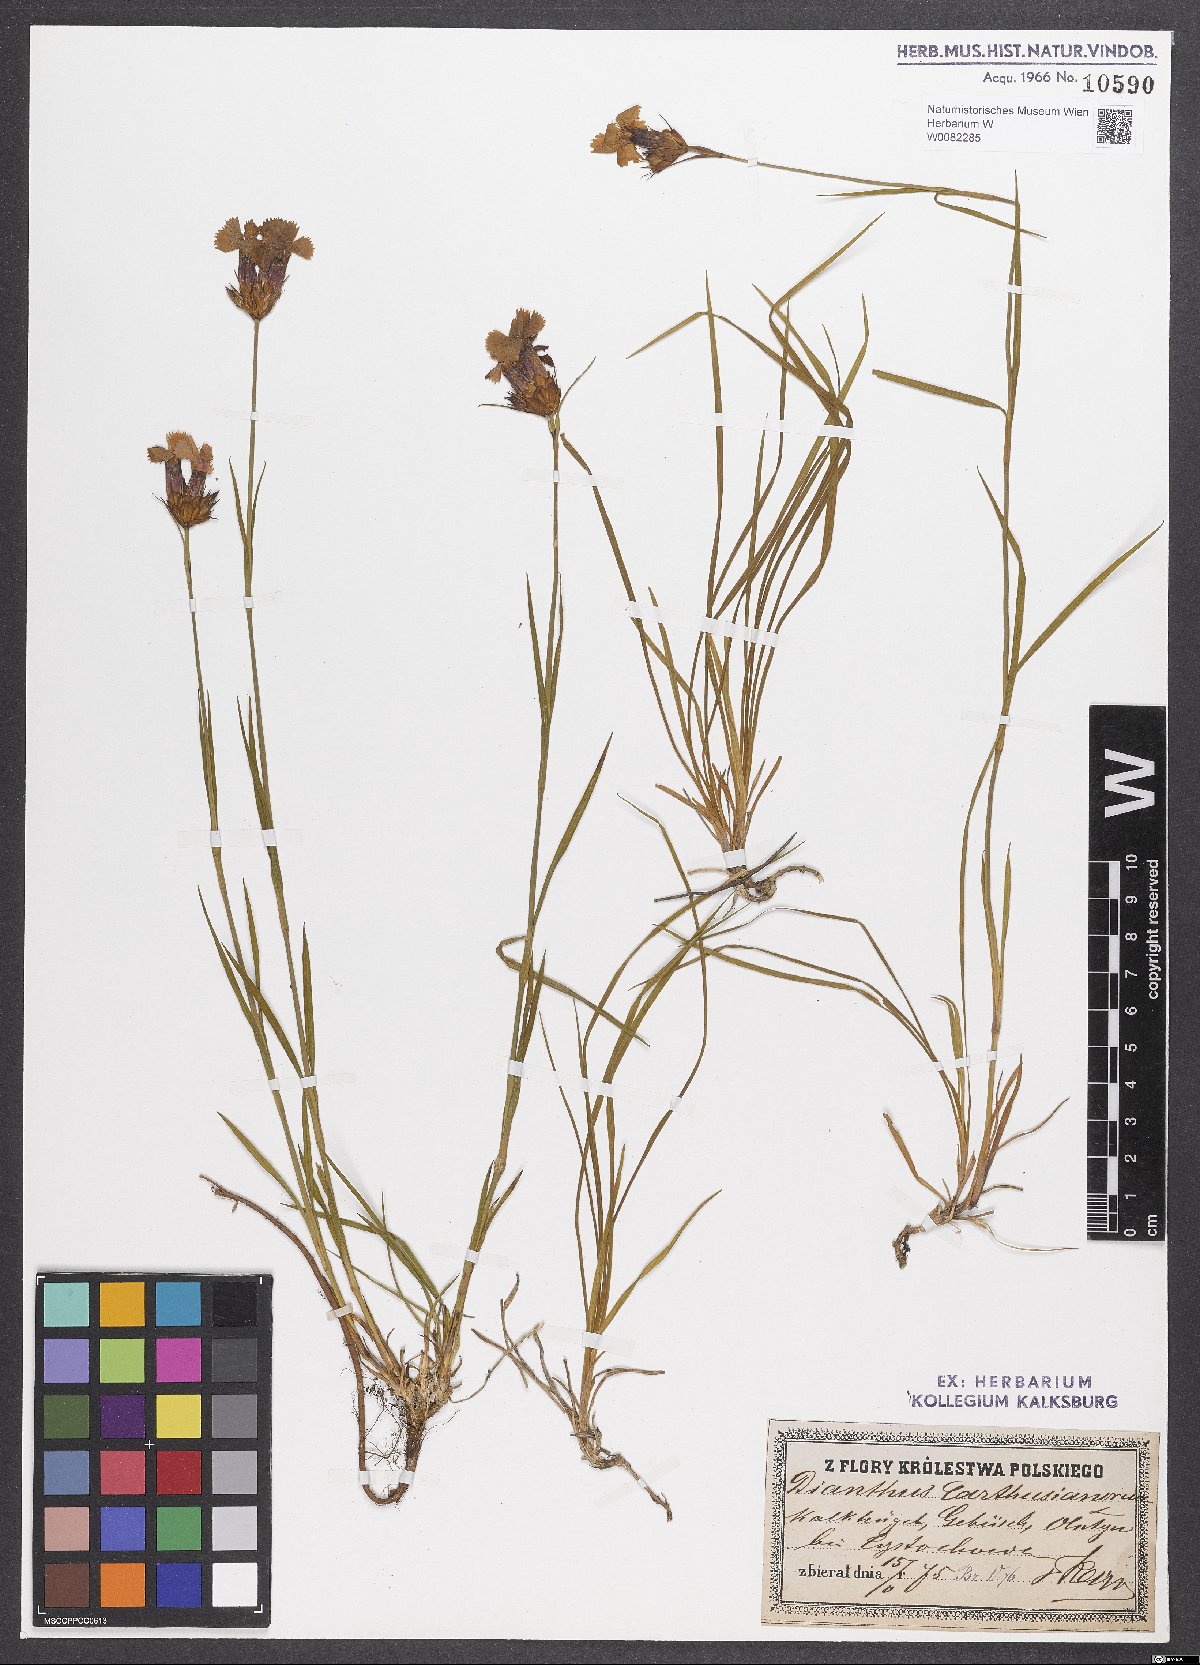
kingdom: Plantae
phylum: Tracheophyta
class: Magnoliopsida
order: Caryophyllales
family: Caryophyllaceae
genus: Dianthus
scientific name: Dianthus carthusianorum
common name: Carthusian pink
